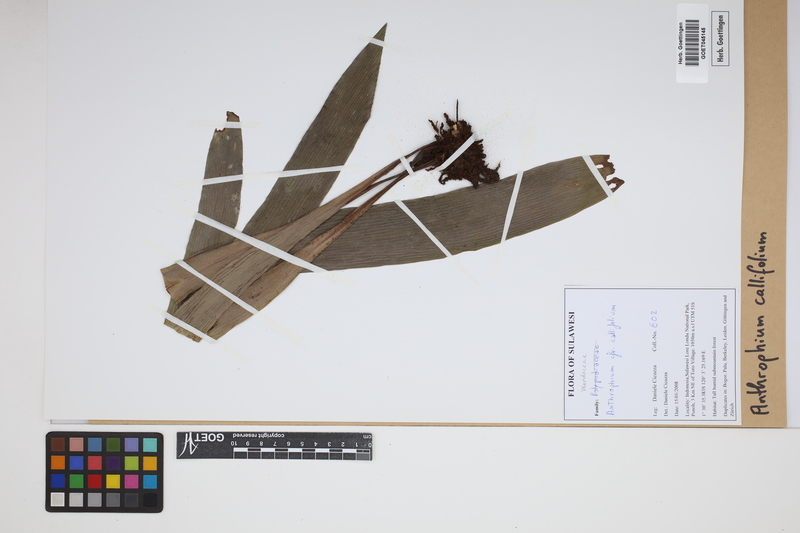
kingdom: Plantae
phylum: Tracheophyta
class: Polypodiopsida
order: Polypodiales
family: Pteridaceae
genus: Antrophyum
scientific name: Antrophyum callifolium
